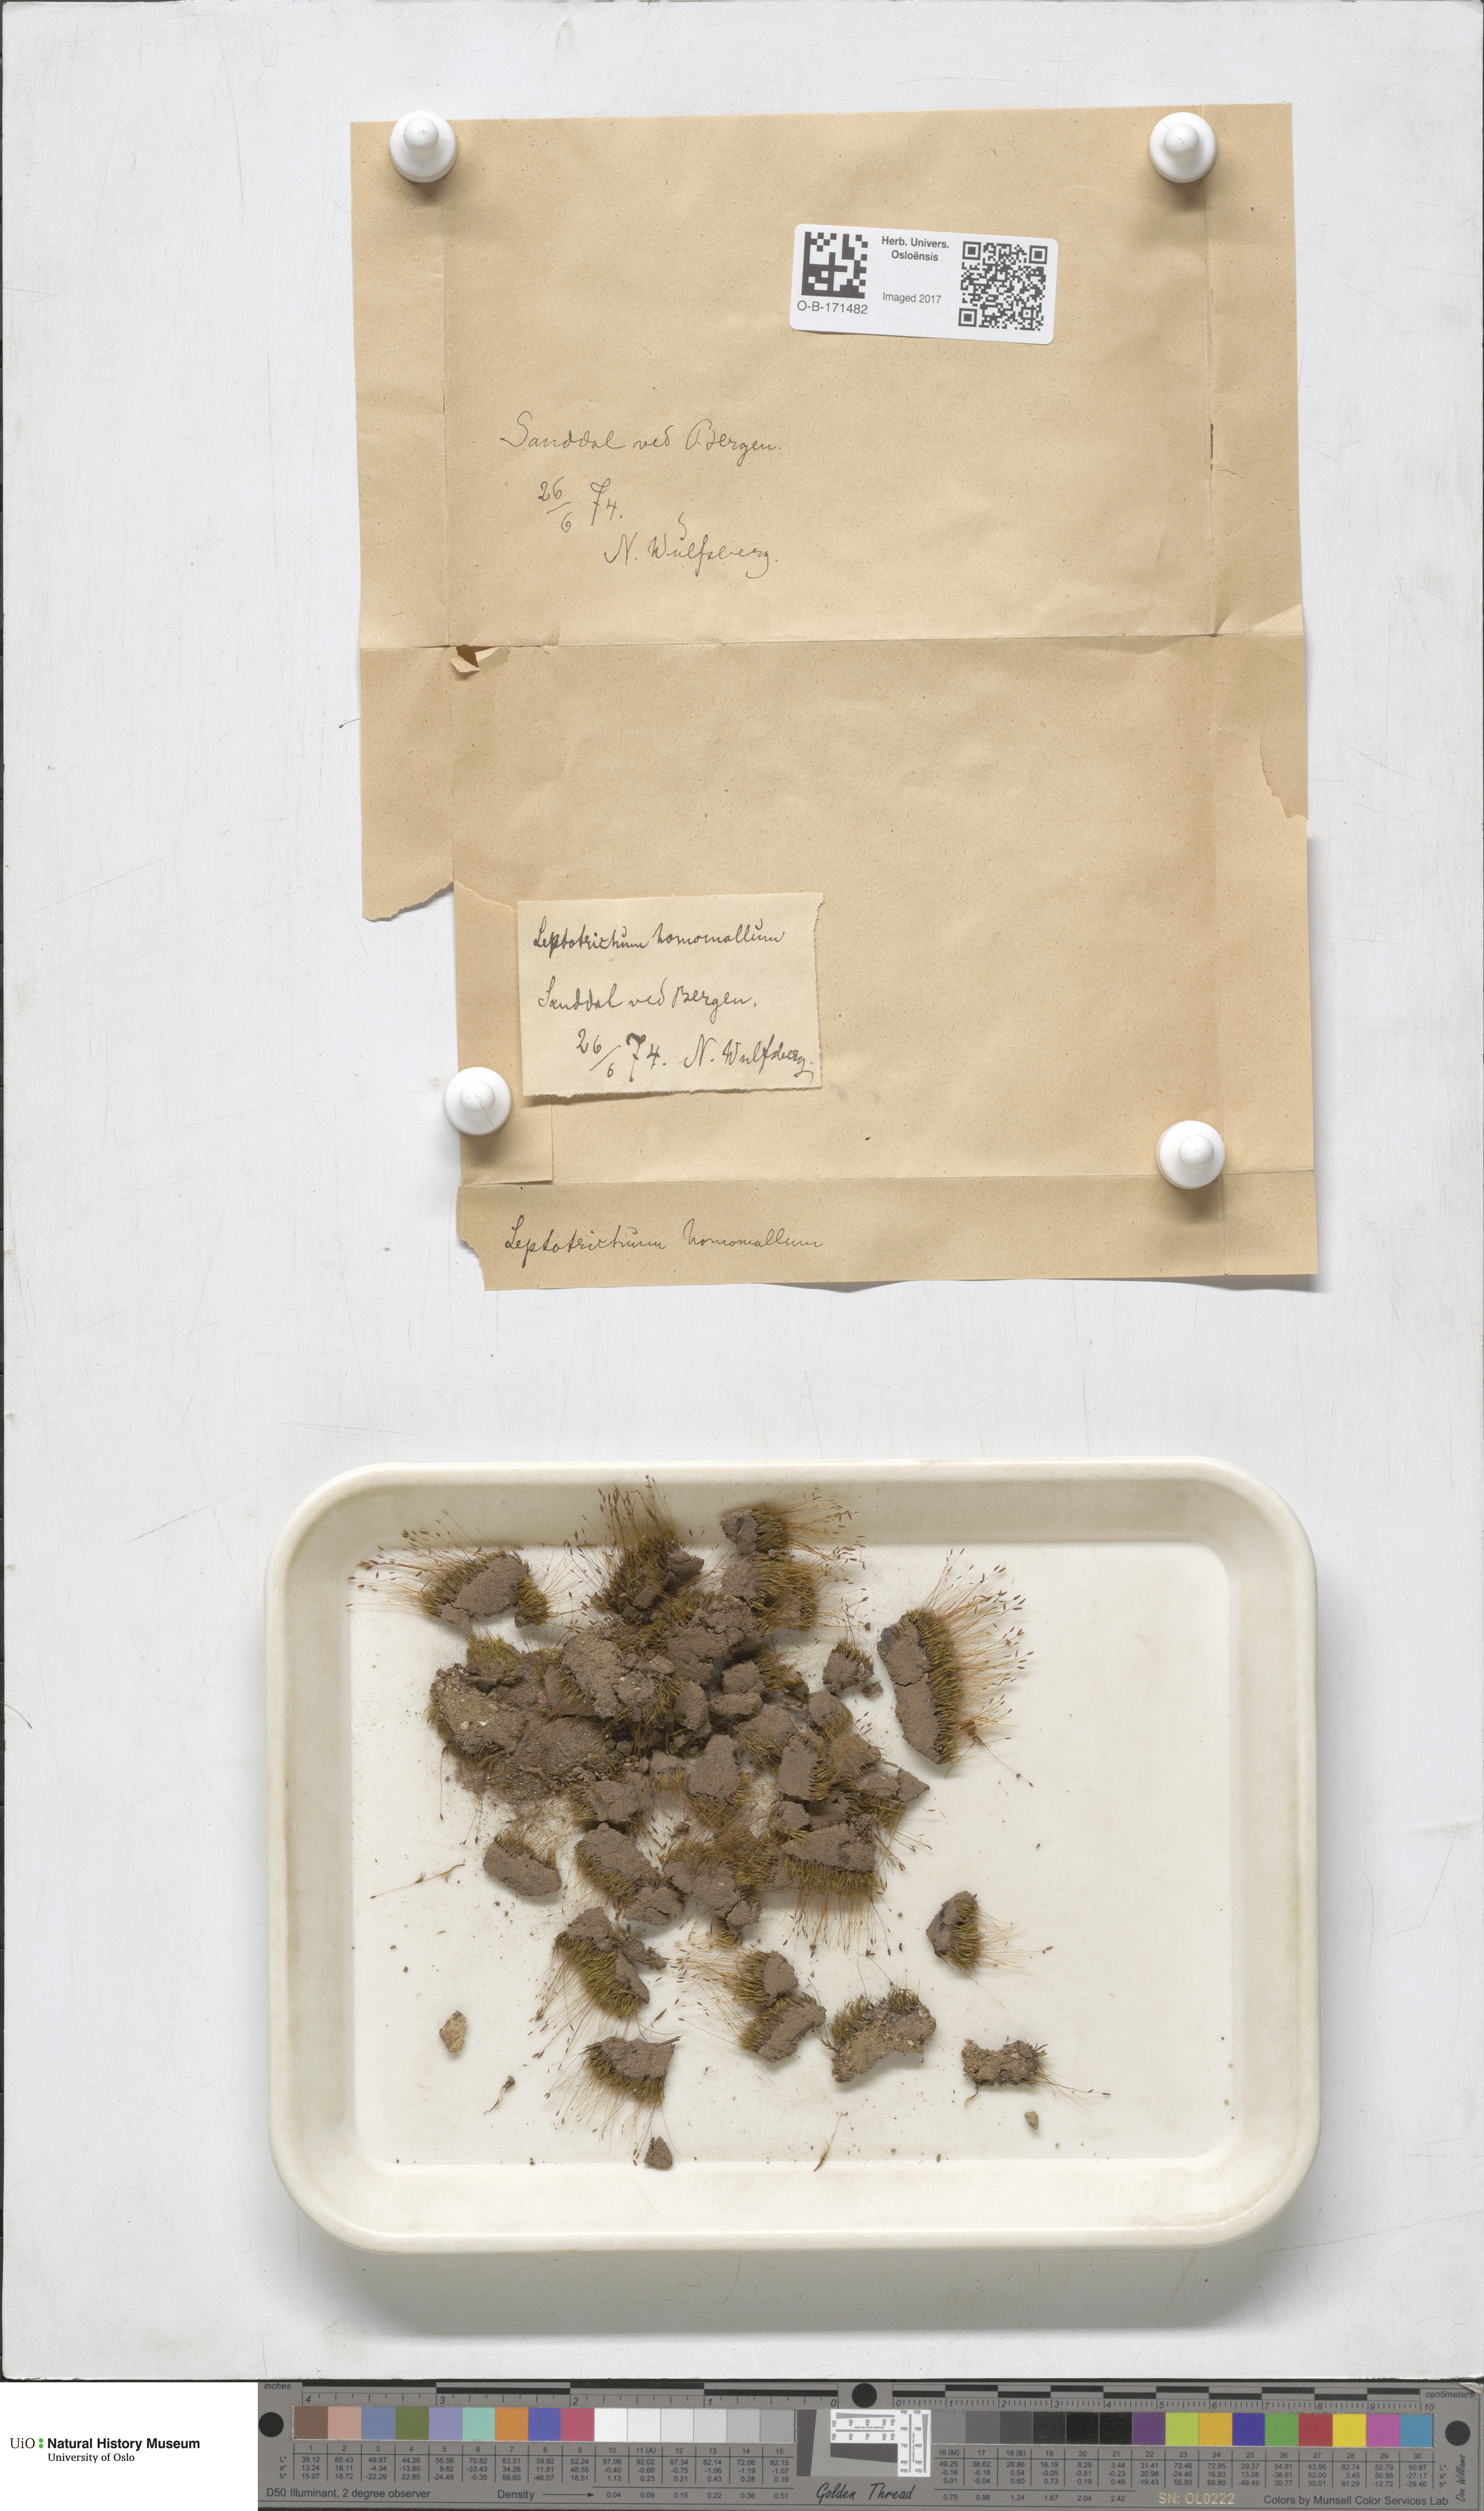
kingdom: Plantae
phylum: Bryophyta
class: Bryopsida
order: Dicranales
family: Ditrichaceae
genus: Ditrichum
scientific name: Ditrichum heteromallum
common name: Curve-leaved ditrichum
